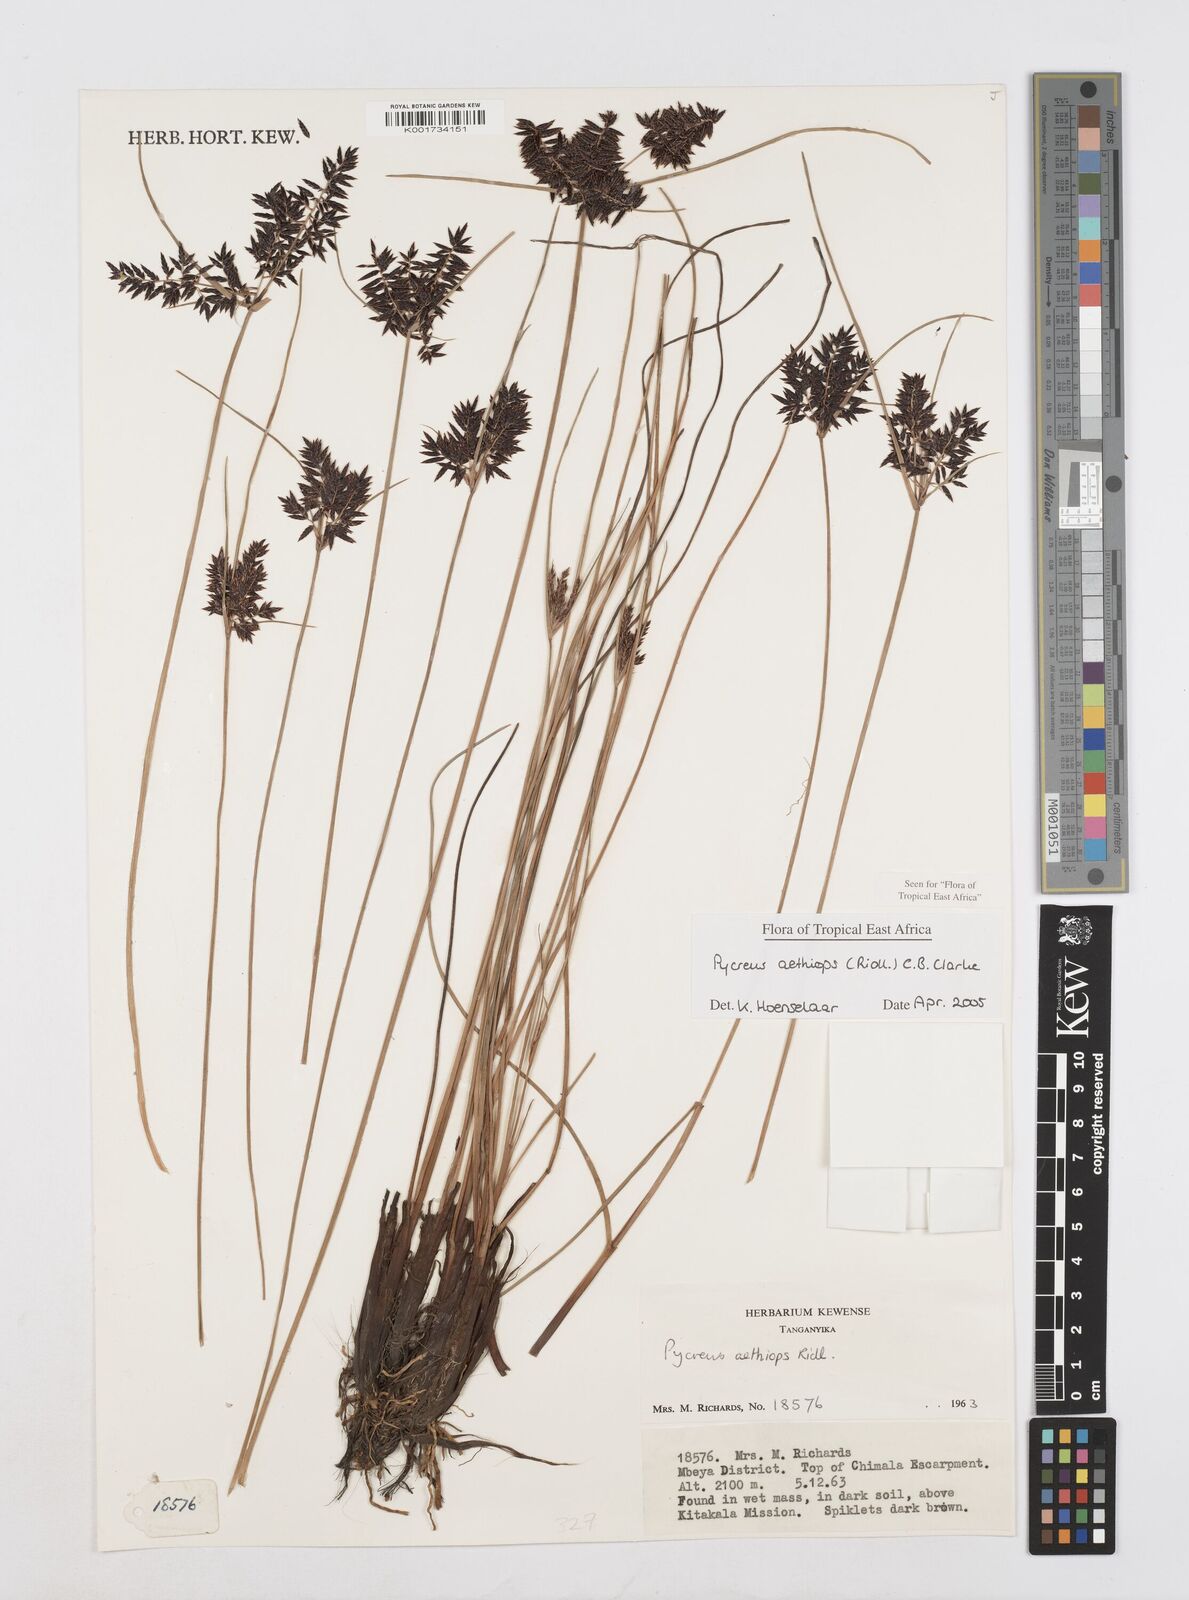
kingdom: Plantae
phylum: Tracheophyta
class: Liliopsida
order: Poales
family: Cyperaceae
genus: Cyperus
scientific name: Cyperus aethiops
